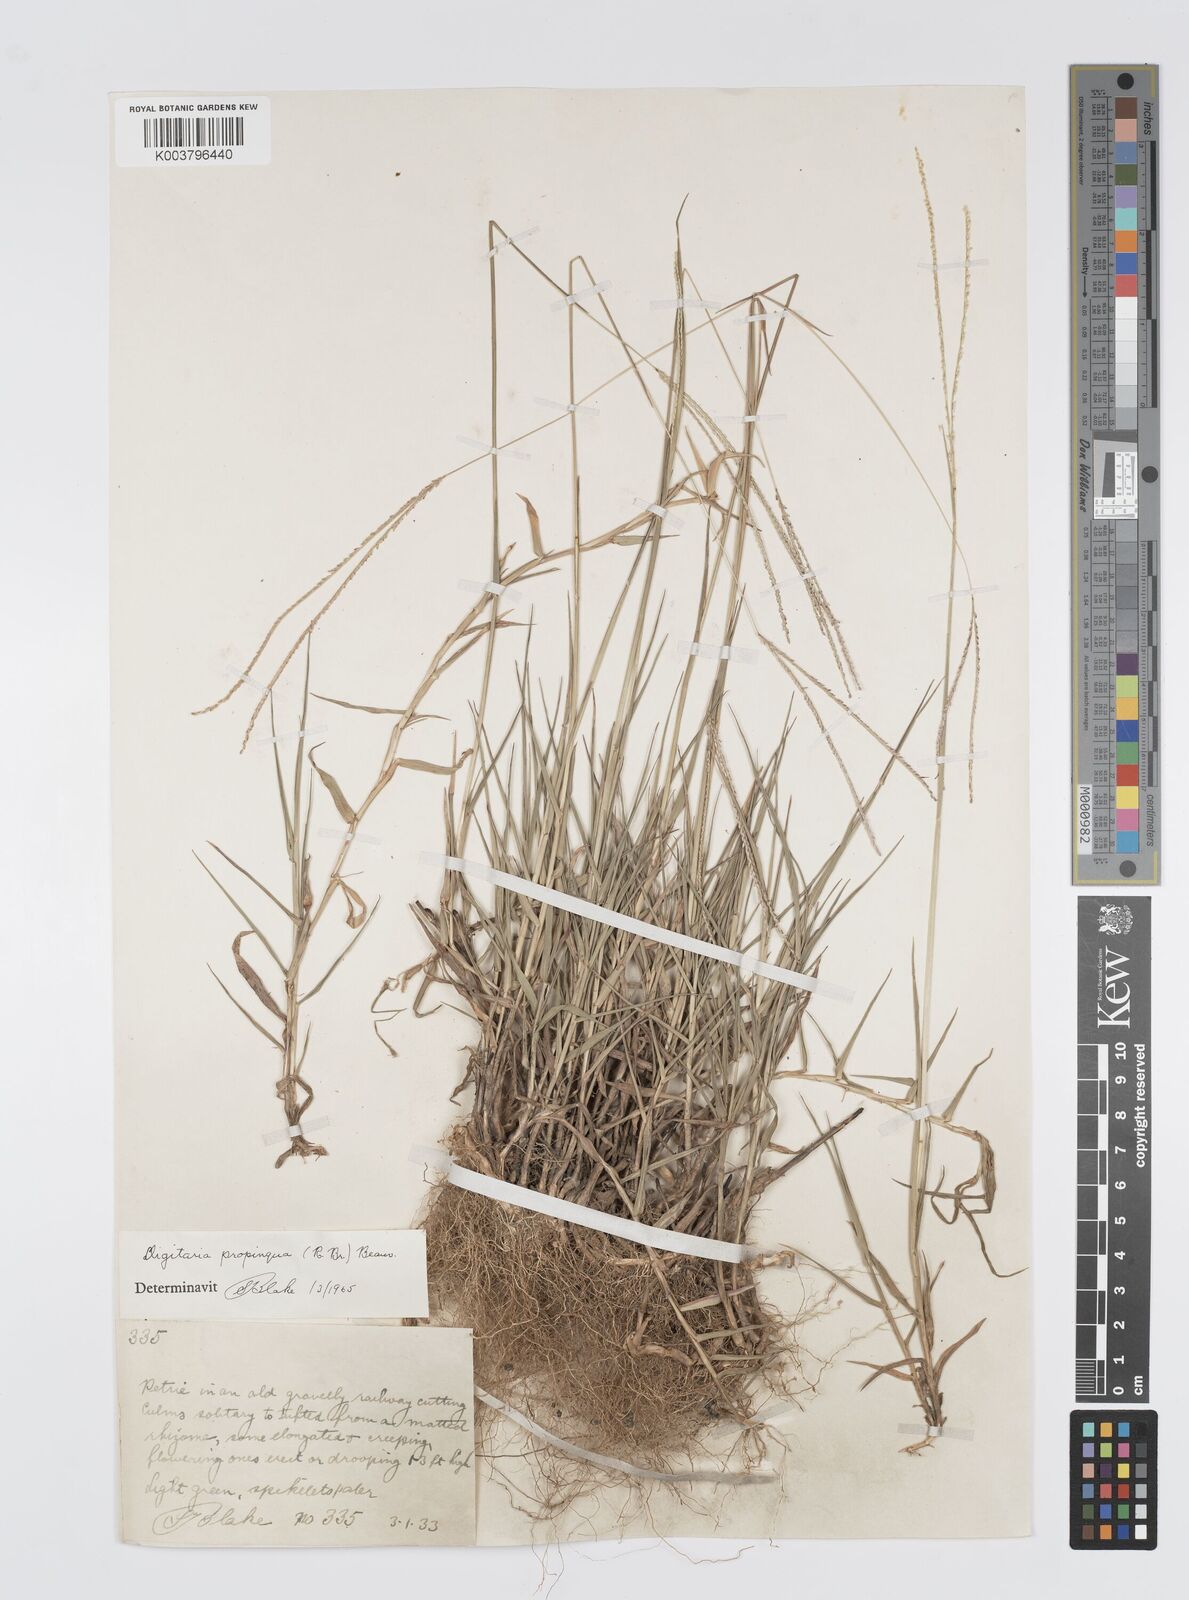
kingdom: Plantae
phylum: Tracheophyta
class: Liliopsida
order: Poales
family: Poaceae
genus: Digitaria
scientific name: Digitaria longiflora
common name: Wire crabgrass
